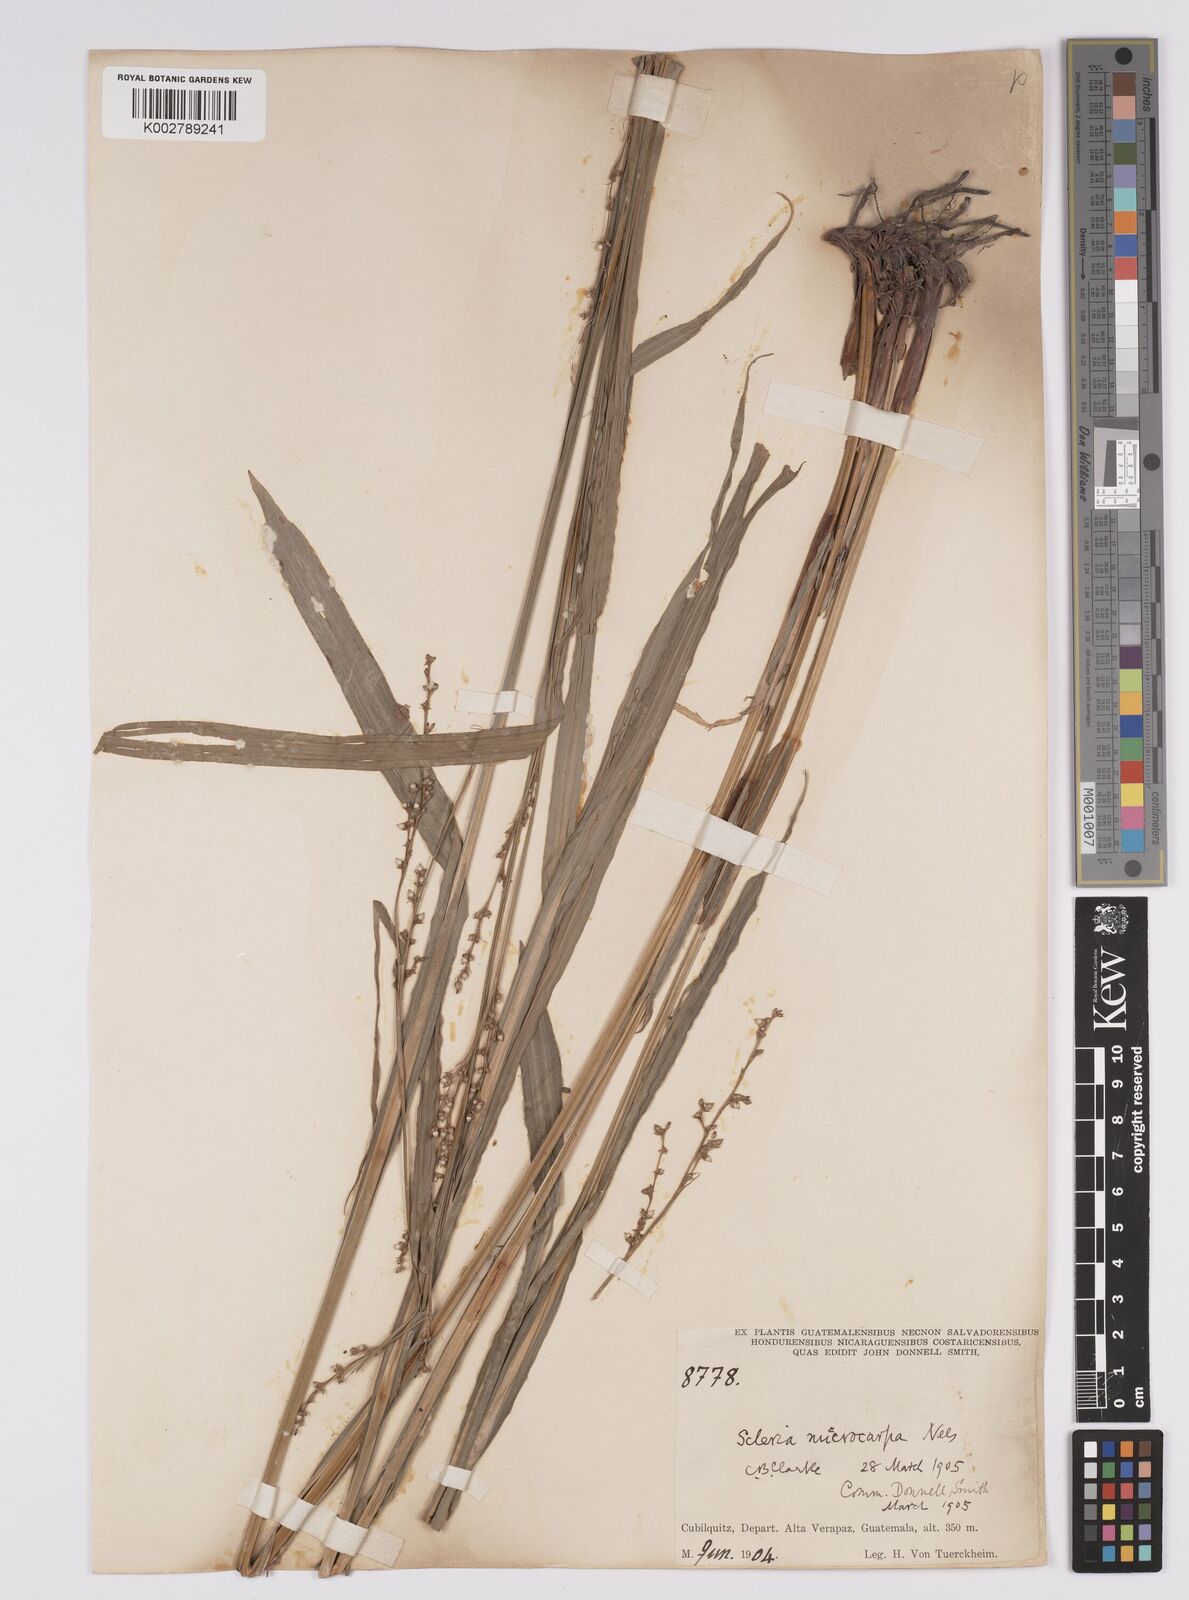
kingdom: Plantae
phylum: Tracheophyta
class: Liliopsida
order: Poales
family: Cyperaceae
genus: Scleria
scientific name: Scleria microcarpa
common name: Tropical nutrush
